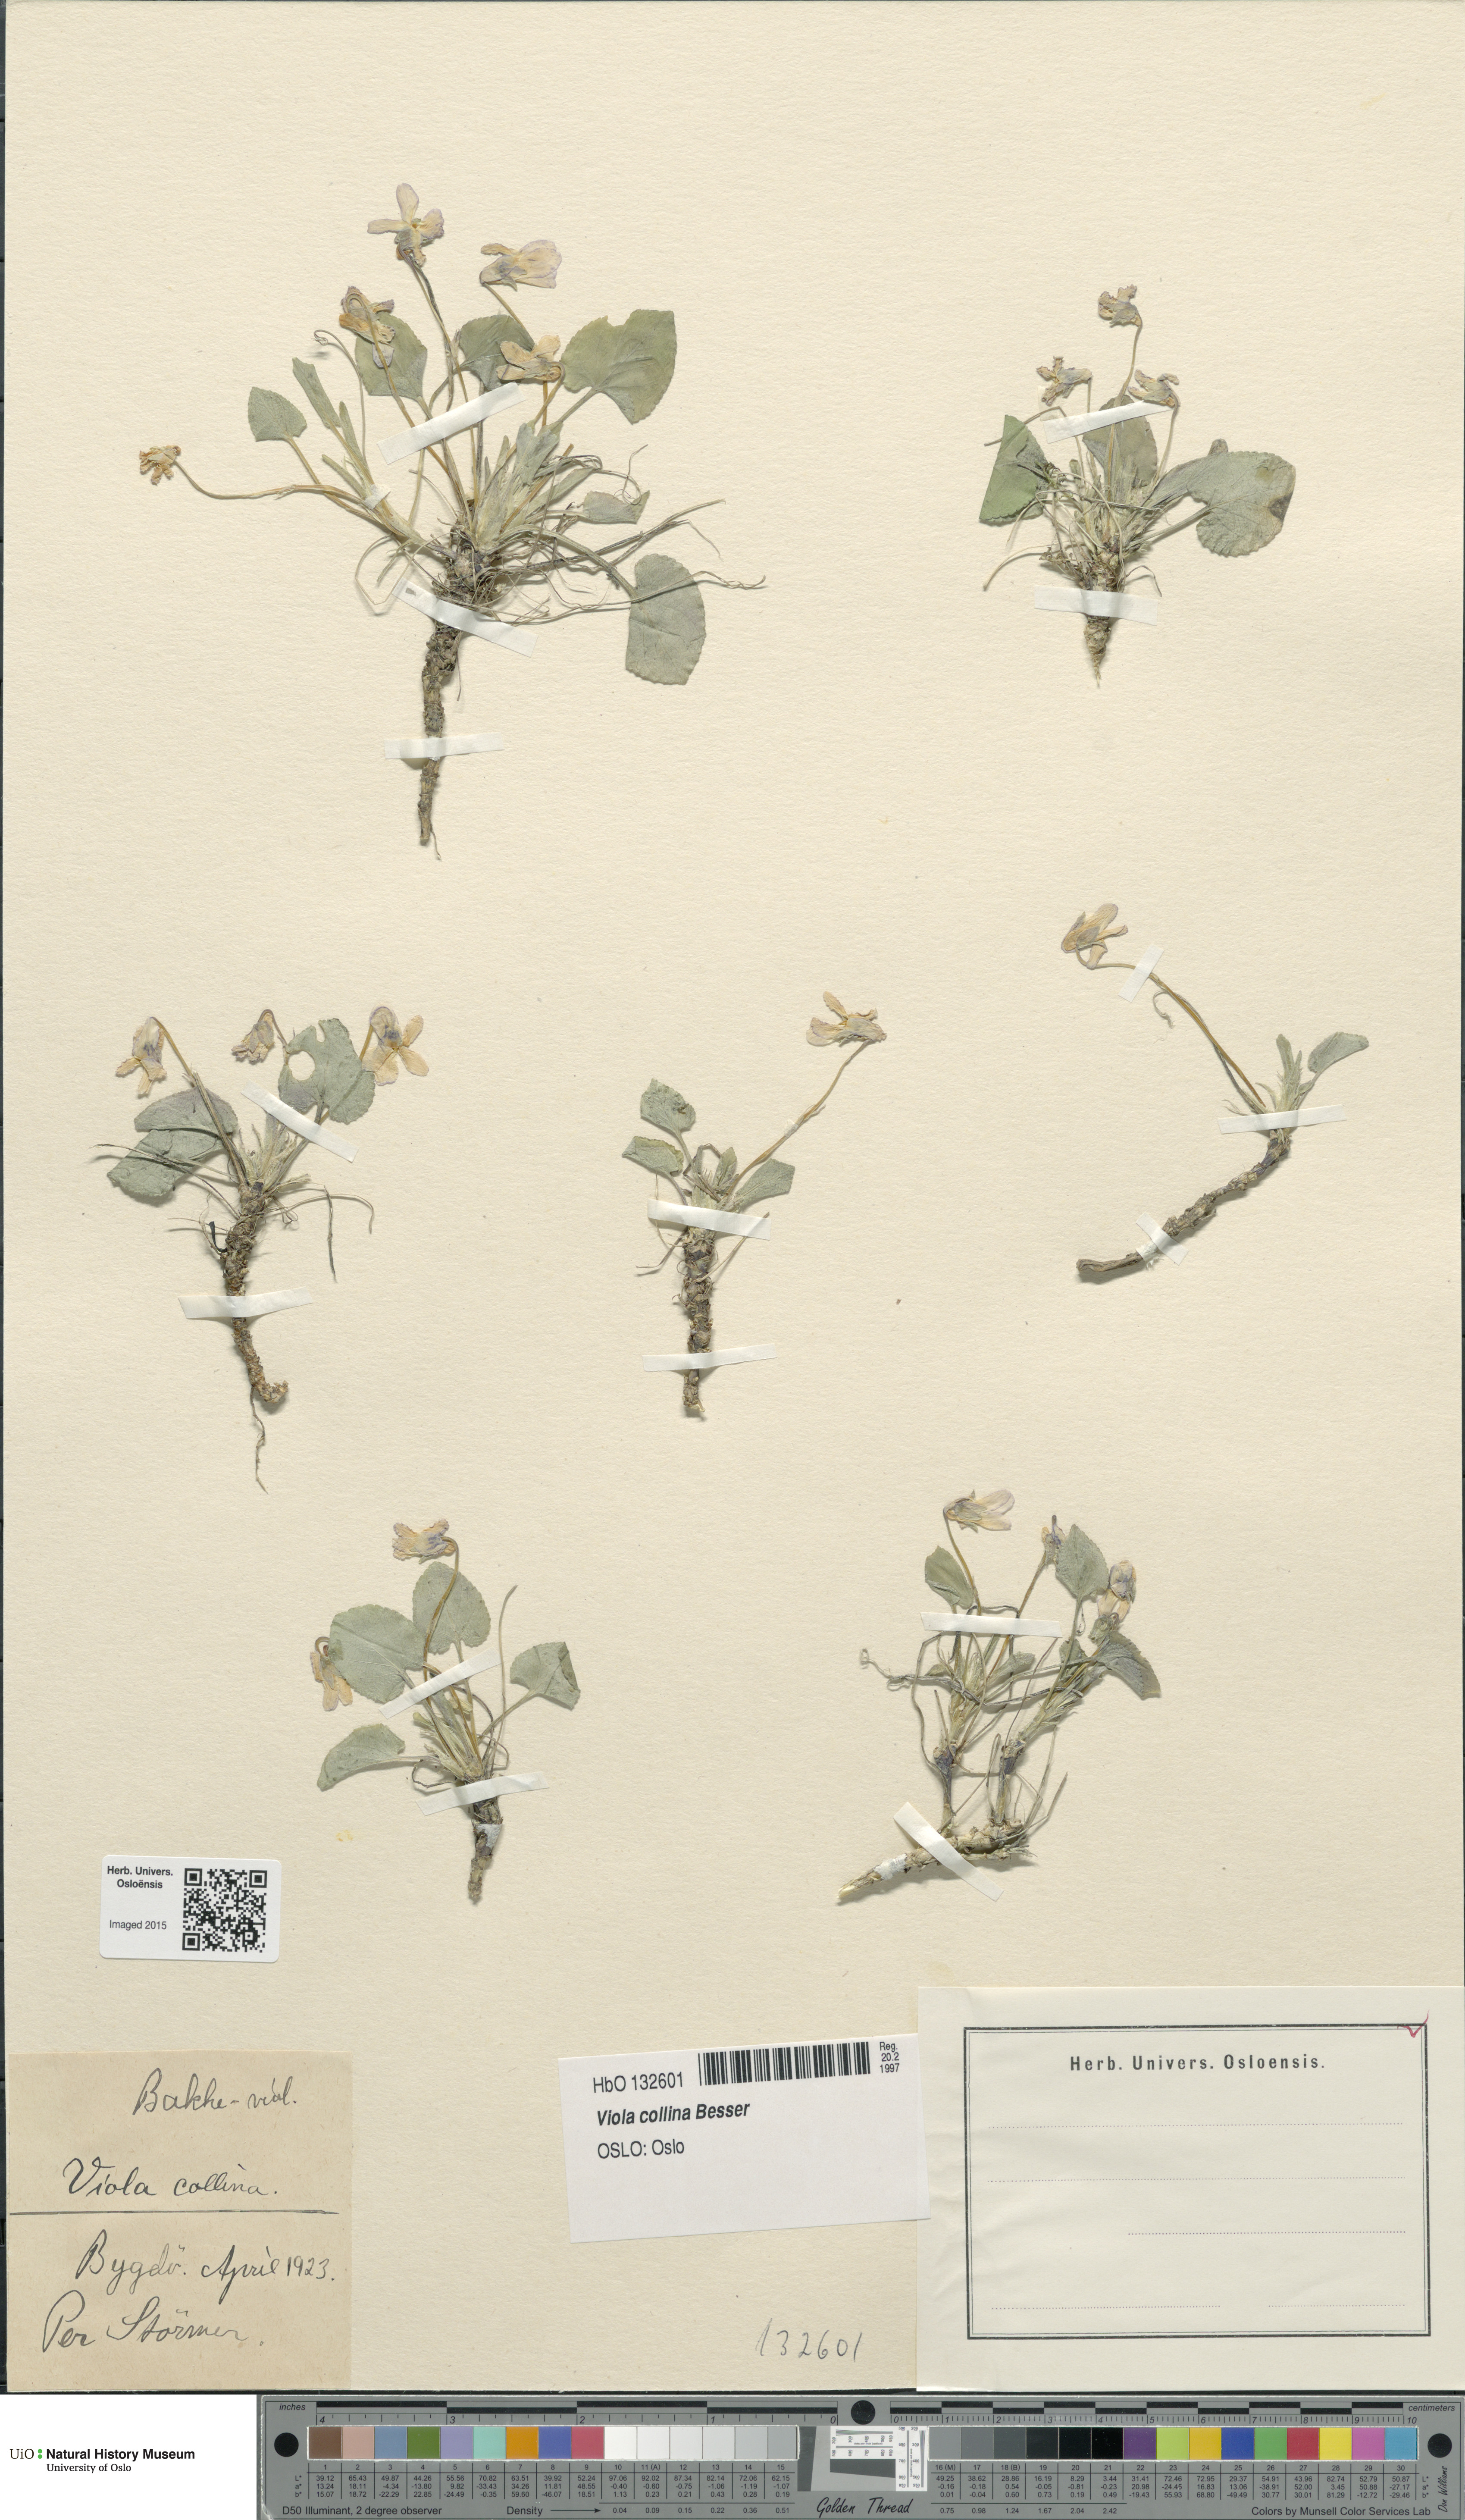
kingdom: Plantae
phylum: Tracheophyta
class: Magnoliopsida
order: Malpighiales
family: Violaceae
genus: Viola
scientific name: Viola collina
